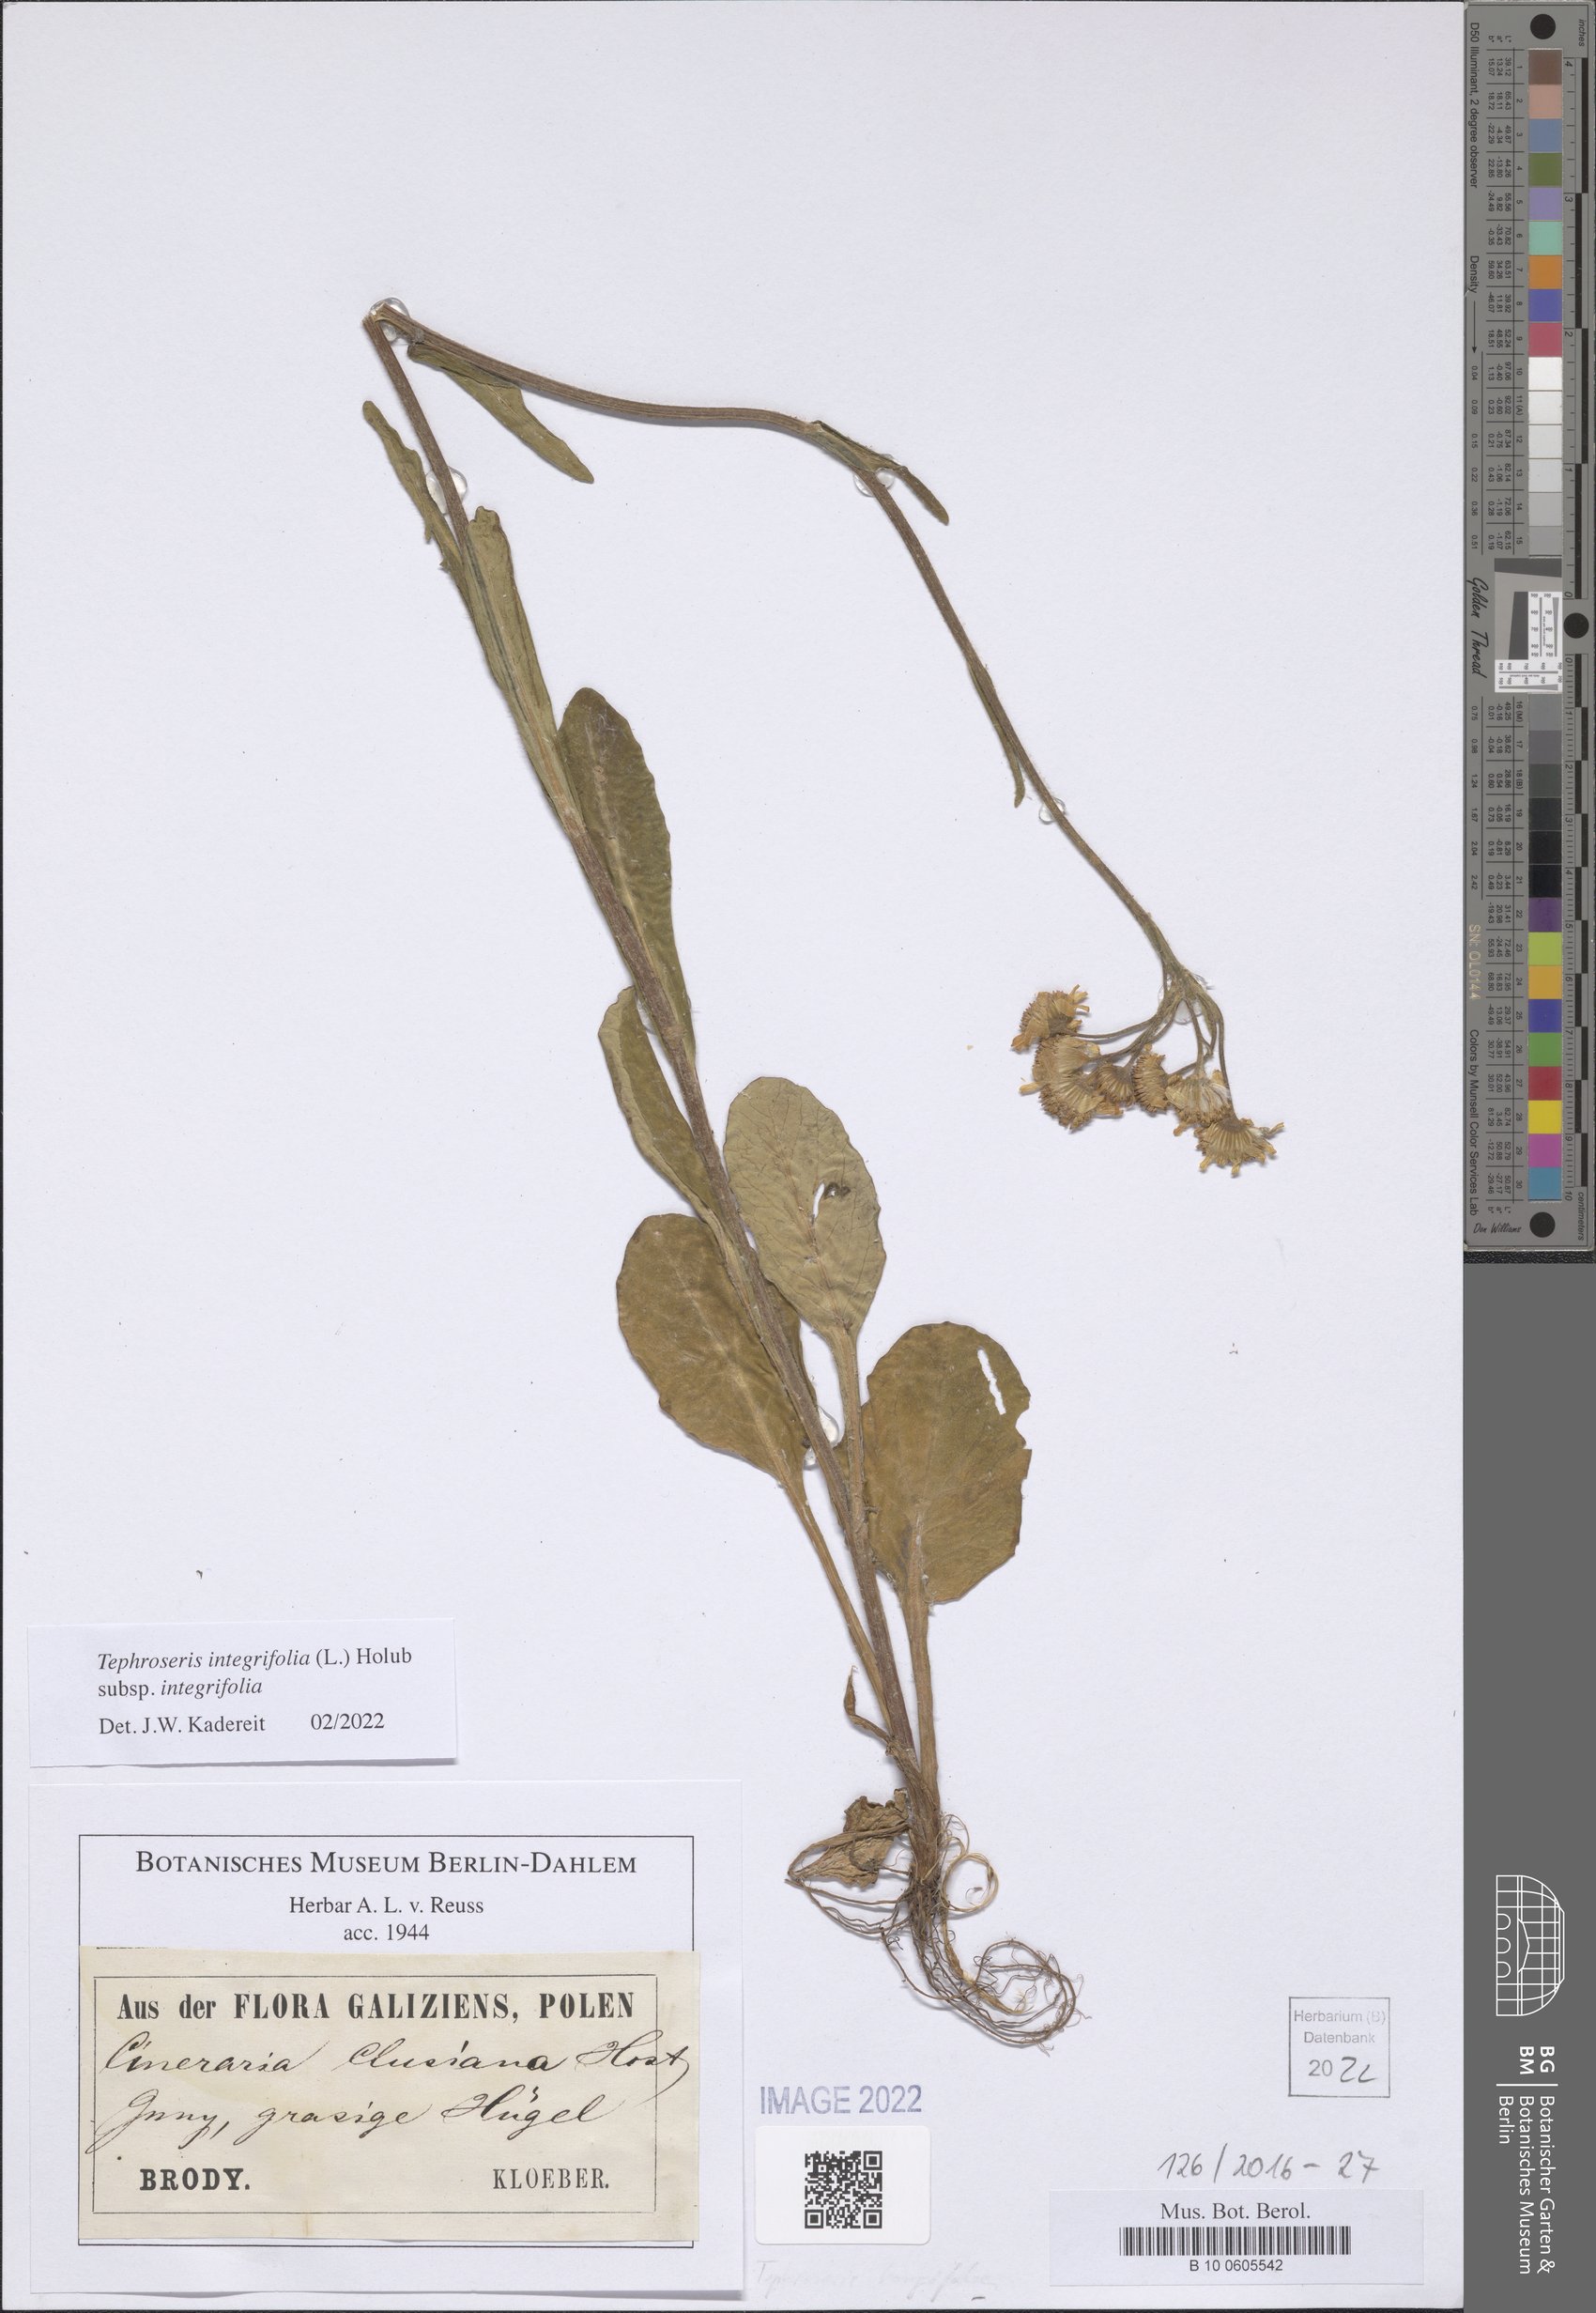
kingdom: Plantae
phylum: Tracheophyta
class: Magnoliopsida
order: Asterales
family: Asteraceae
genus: Tephroseris
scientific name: Tephroseris longifolia
